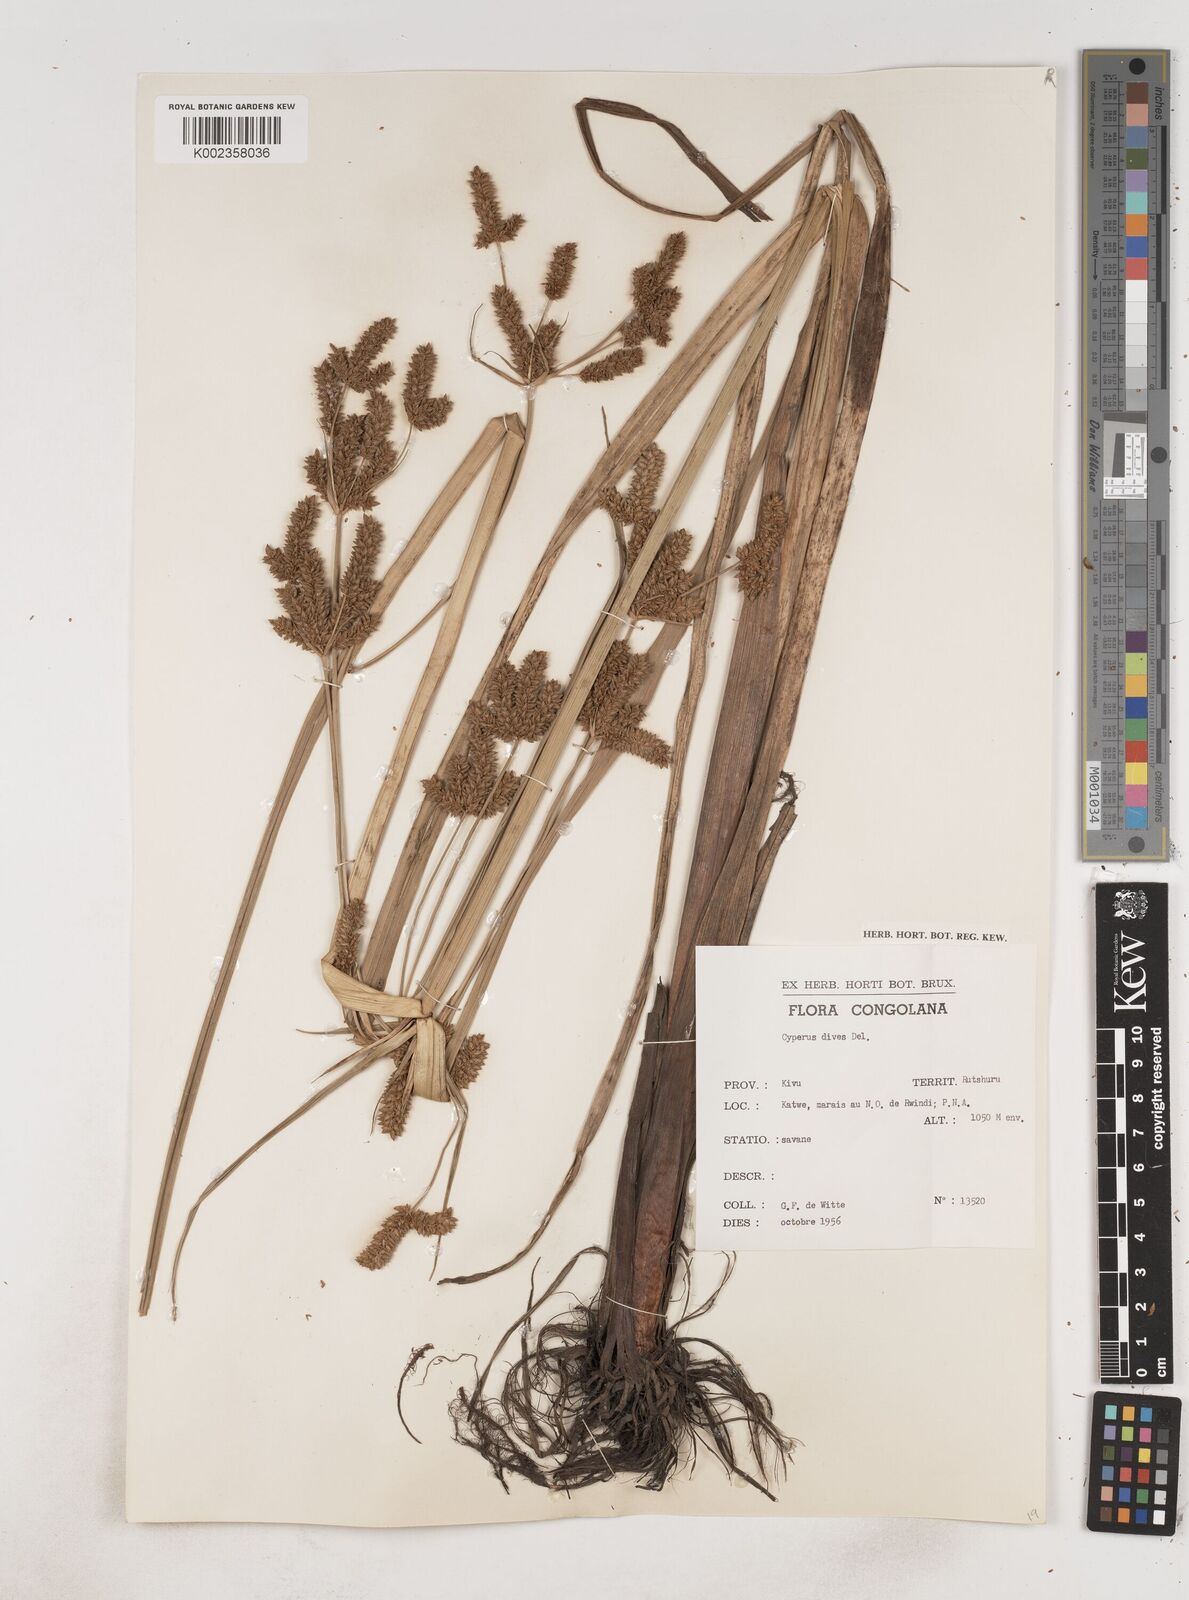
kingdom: Plantae
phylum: Tracheophyta
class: Liliopsida
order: Poales
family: Cyperaceae
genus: Cyperus
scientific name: Cyperus dives
